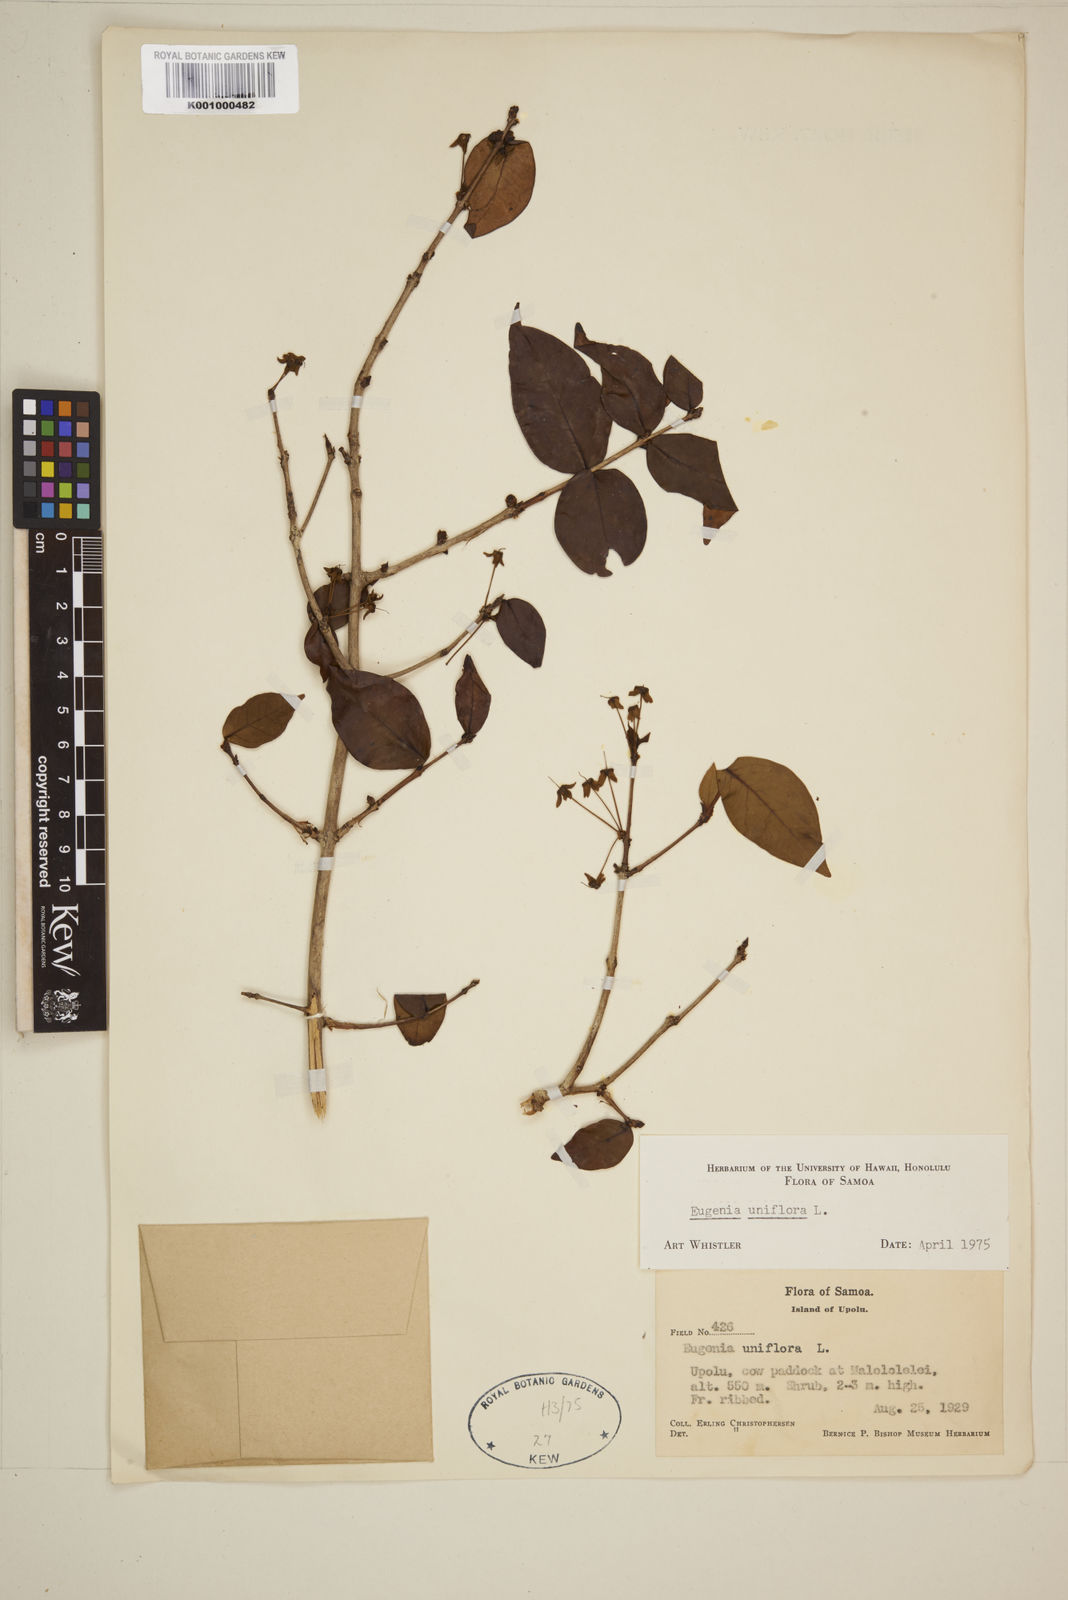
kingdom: Plantae
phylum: Tracheophyta
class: Magnoliopsida
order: Myrtales
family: Myrtaceae
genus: Eugenia
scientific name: Eugenia uniflora
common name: Surinam cherry
